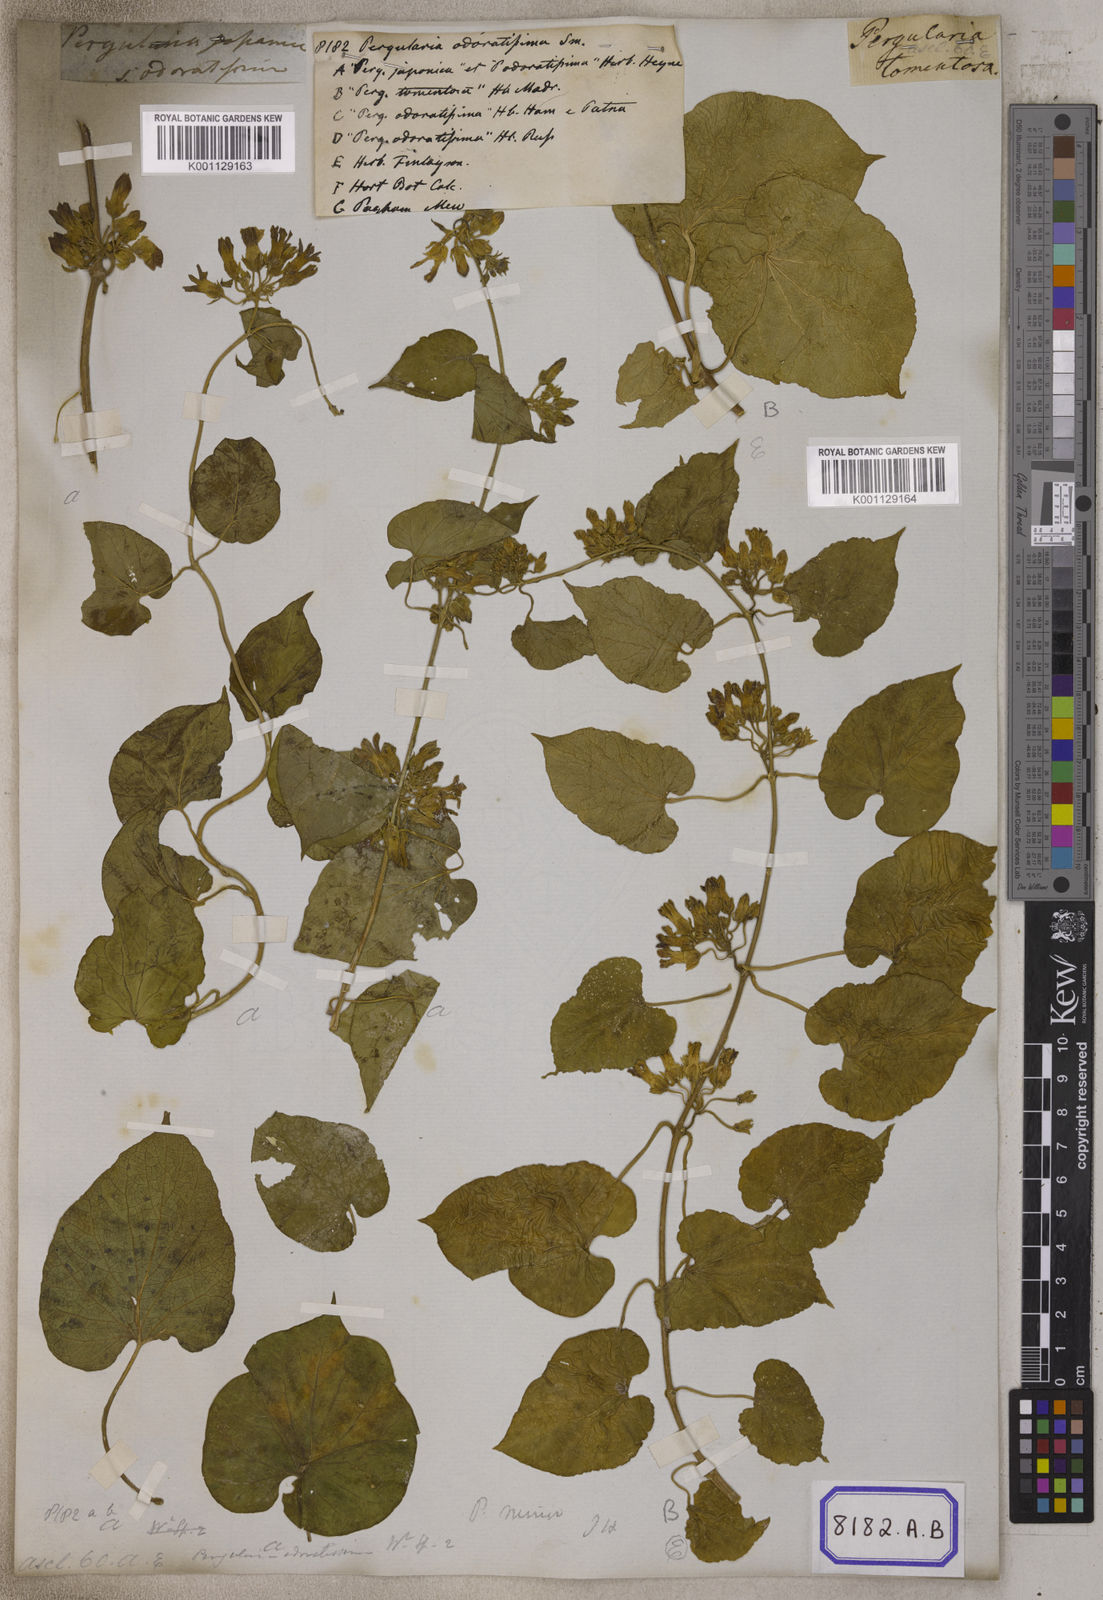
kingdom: Plantae
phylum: Tracheophyta
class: Magnoliopsida
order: Gentianales
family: Apocynaceae
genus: Telosma
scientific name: Telosma cordata
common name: Chinese-violet
